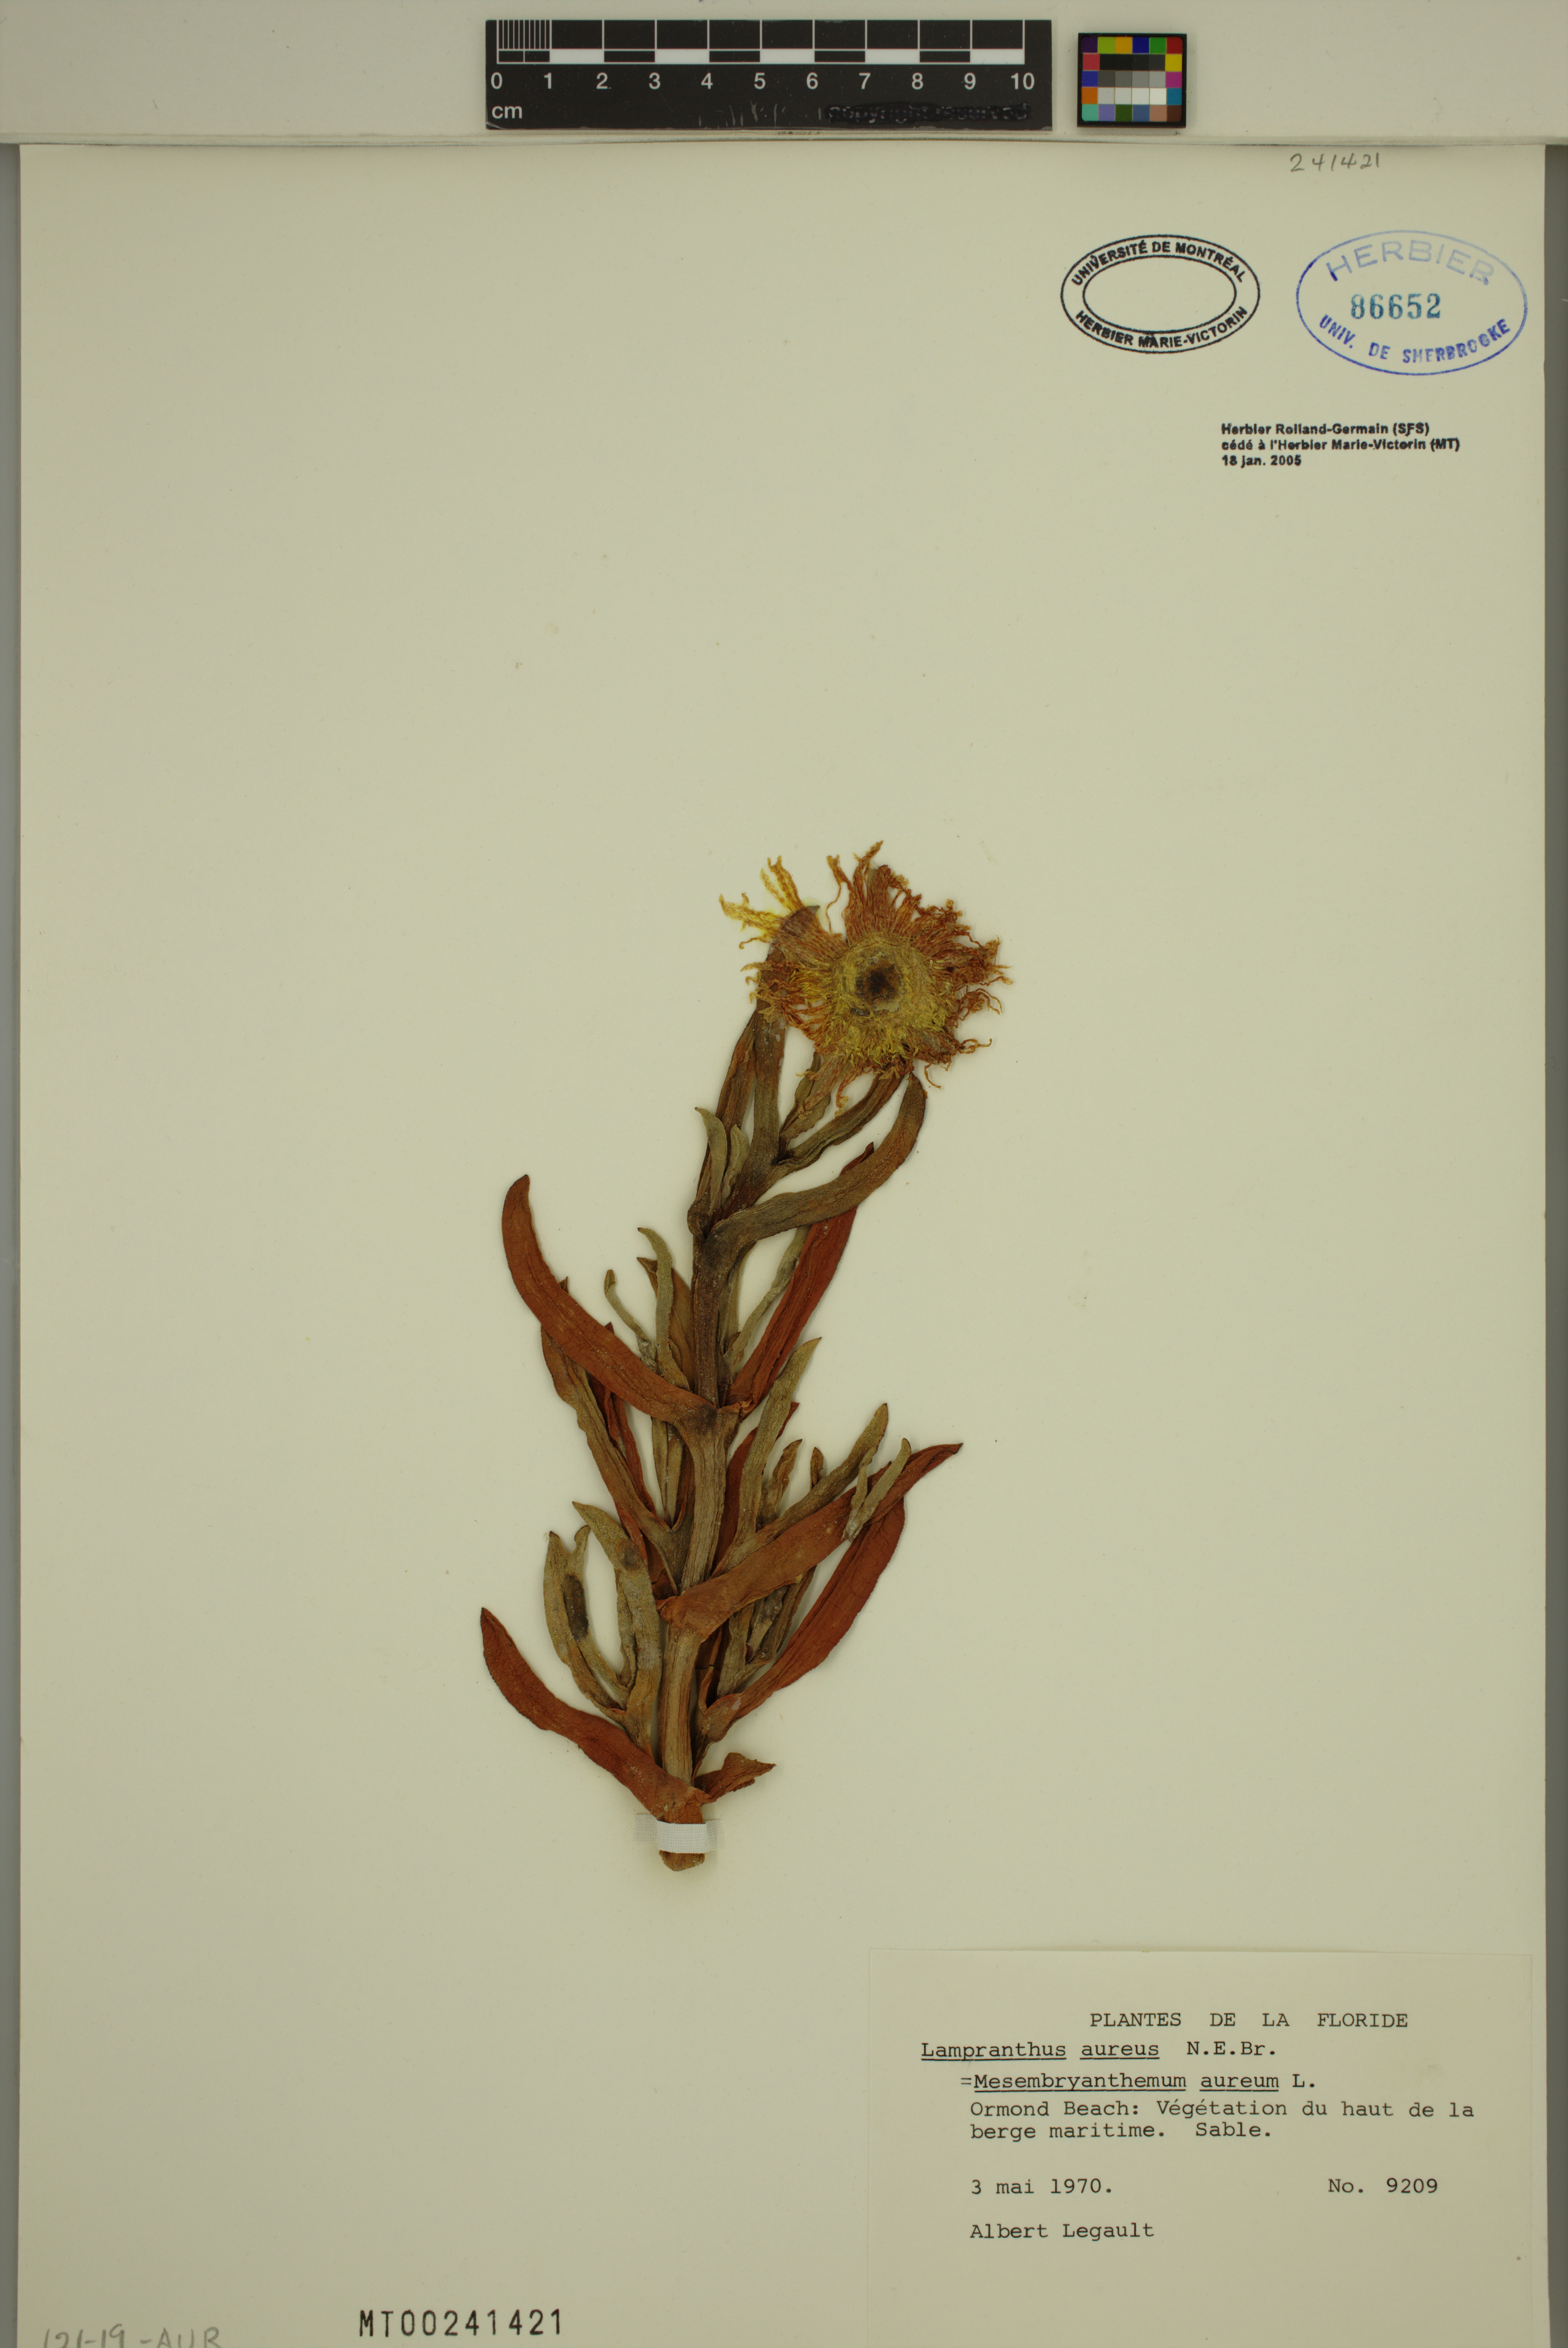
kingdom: Plantae
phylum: Tracheophyta
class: Magnoliopsida
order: Caryophyllales
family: Aizoaceae
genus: Lampranthus
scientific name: Lampranthus aureus
